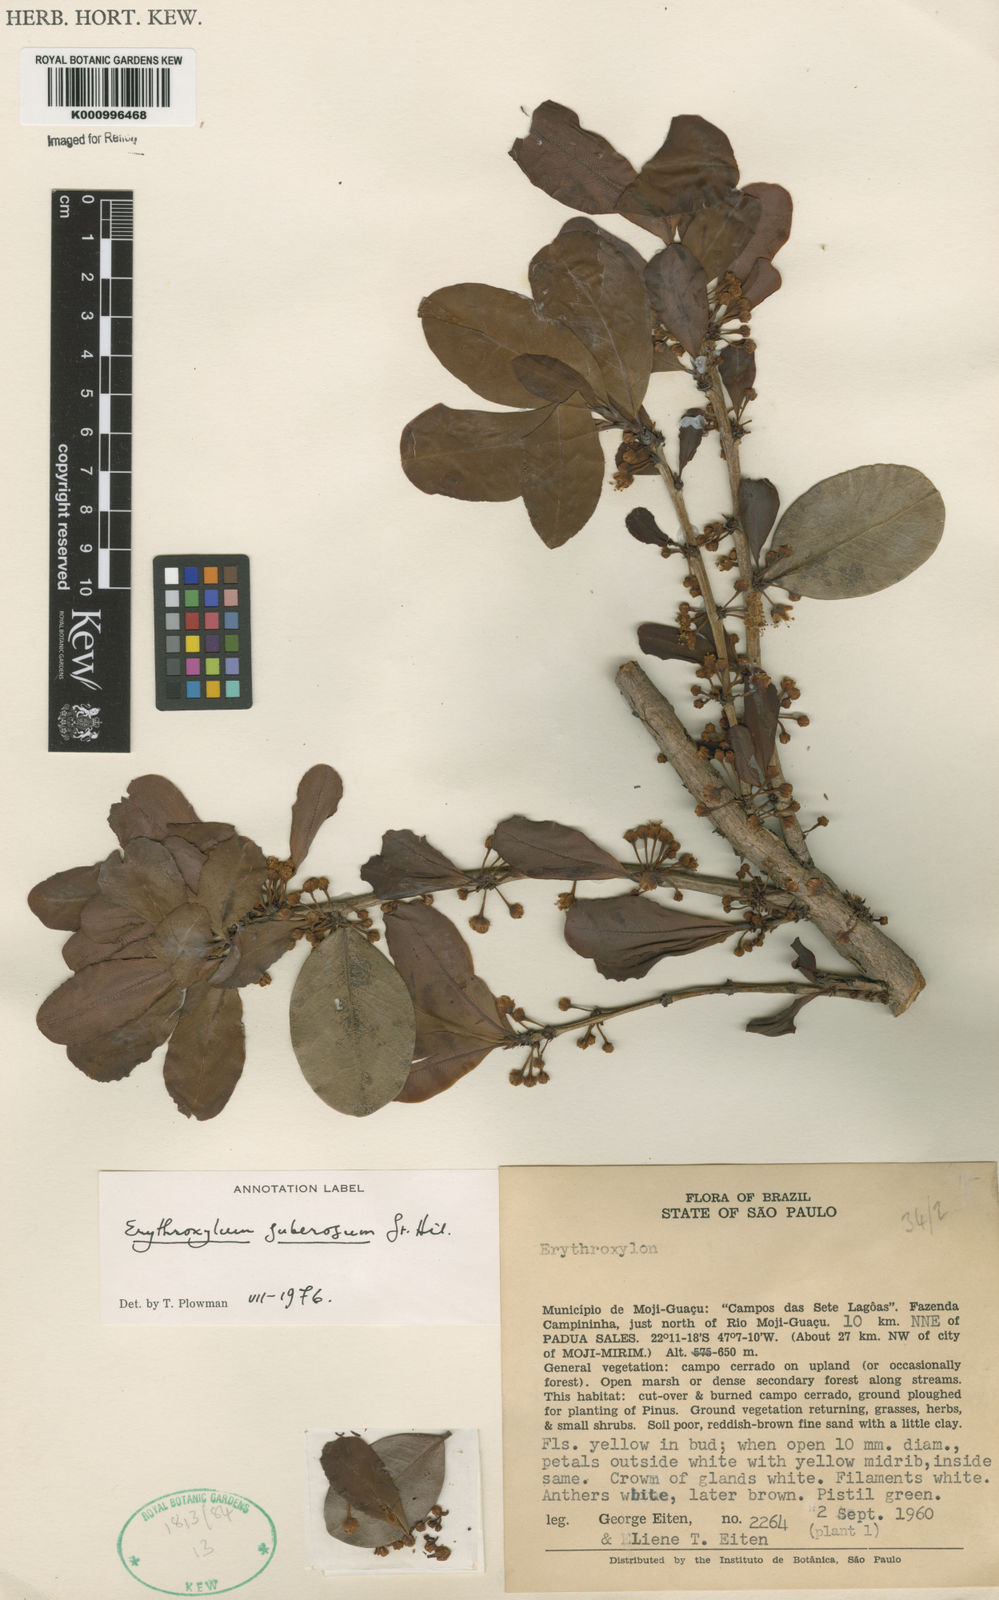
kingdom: Plantae
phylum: Tracheophyta
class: Magnoliopsida
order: Malpighiales
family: Erythroxylaceae
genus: Erythroxylum
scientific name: Erythroxylum suberosum
